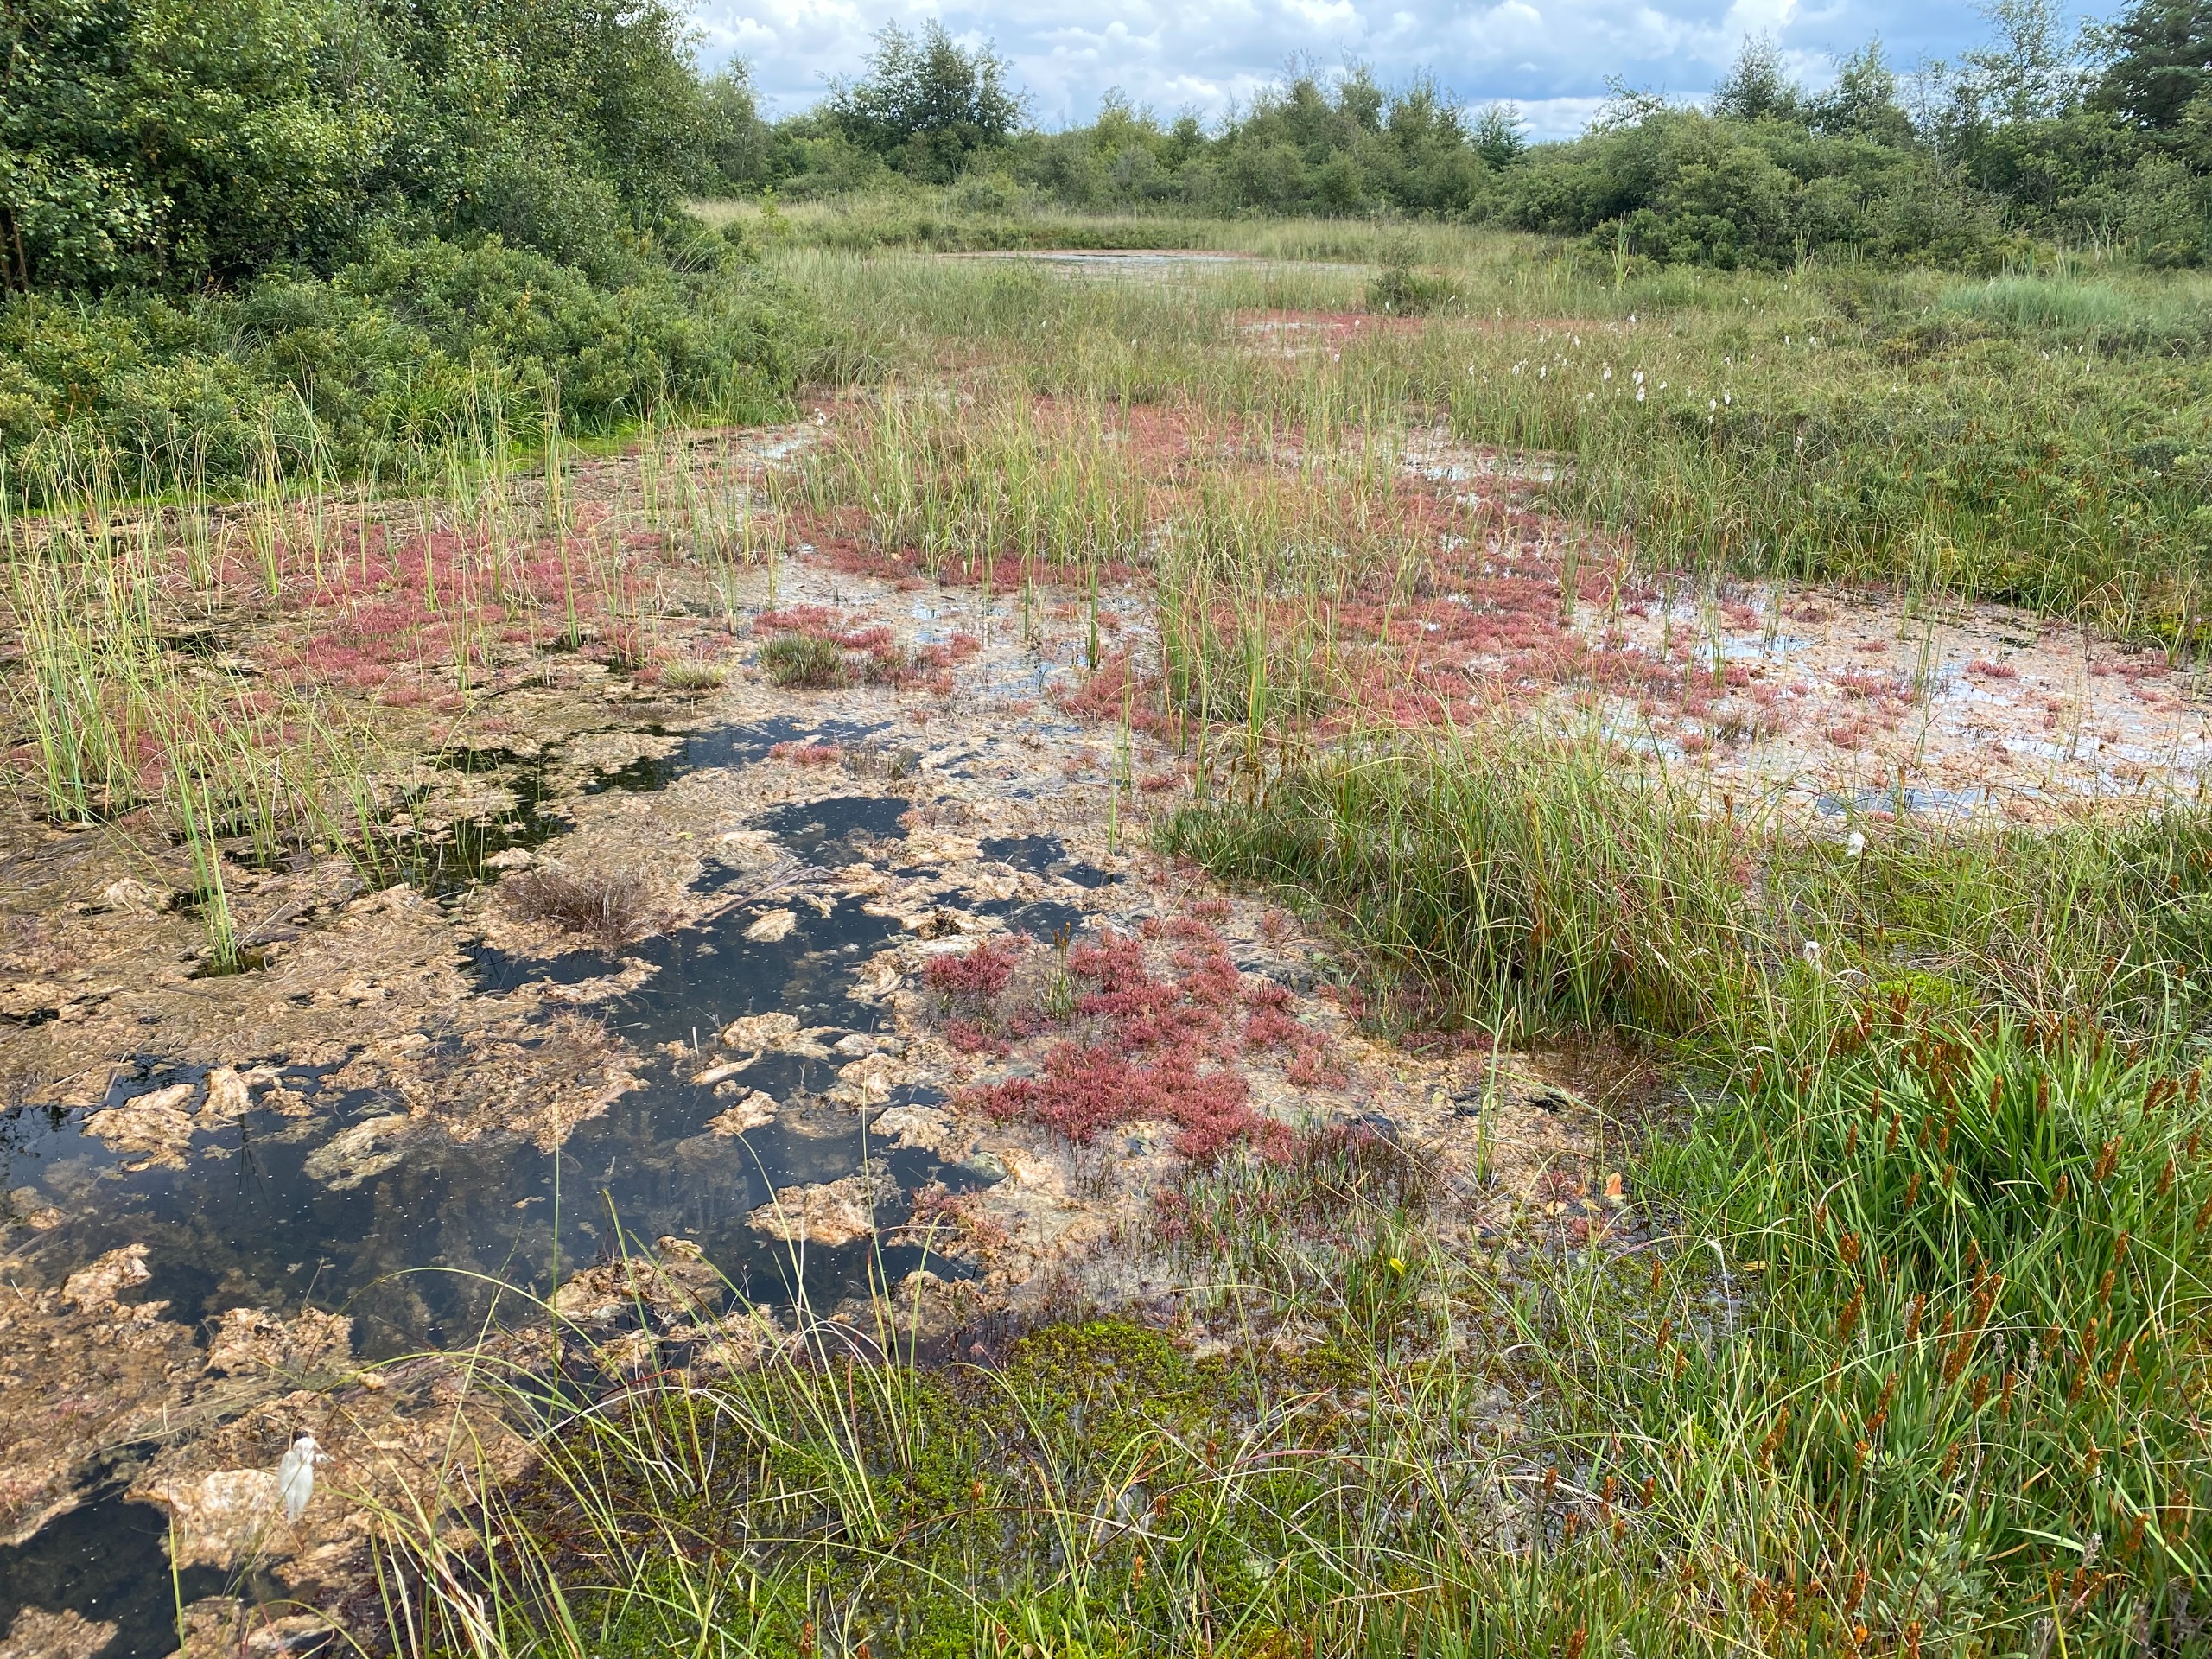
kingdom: Plantae
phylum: Tracheophyta
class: Magnoliopsida
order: Caryophyllales
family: Droseraceae
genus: Drosera
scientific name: Drosera intermedia
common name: Liden soldug
